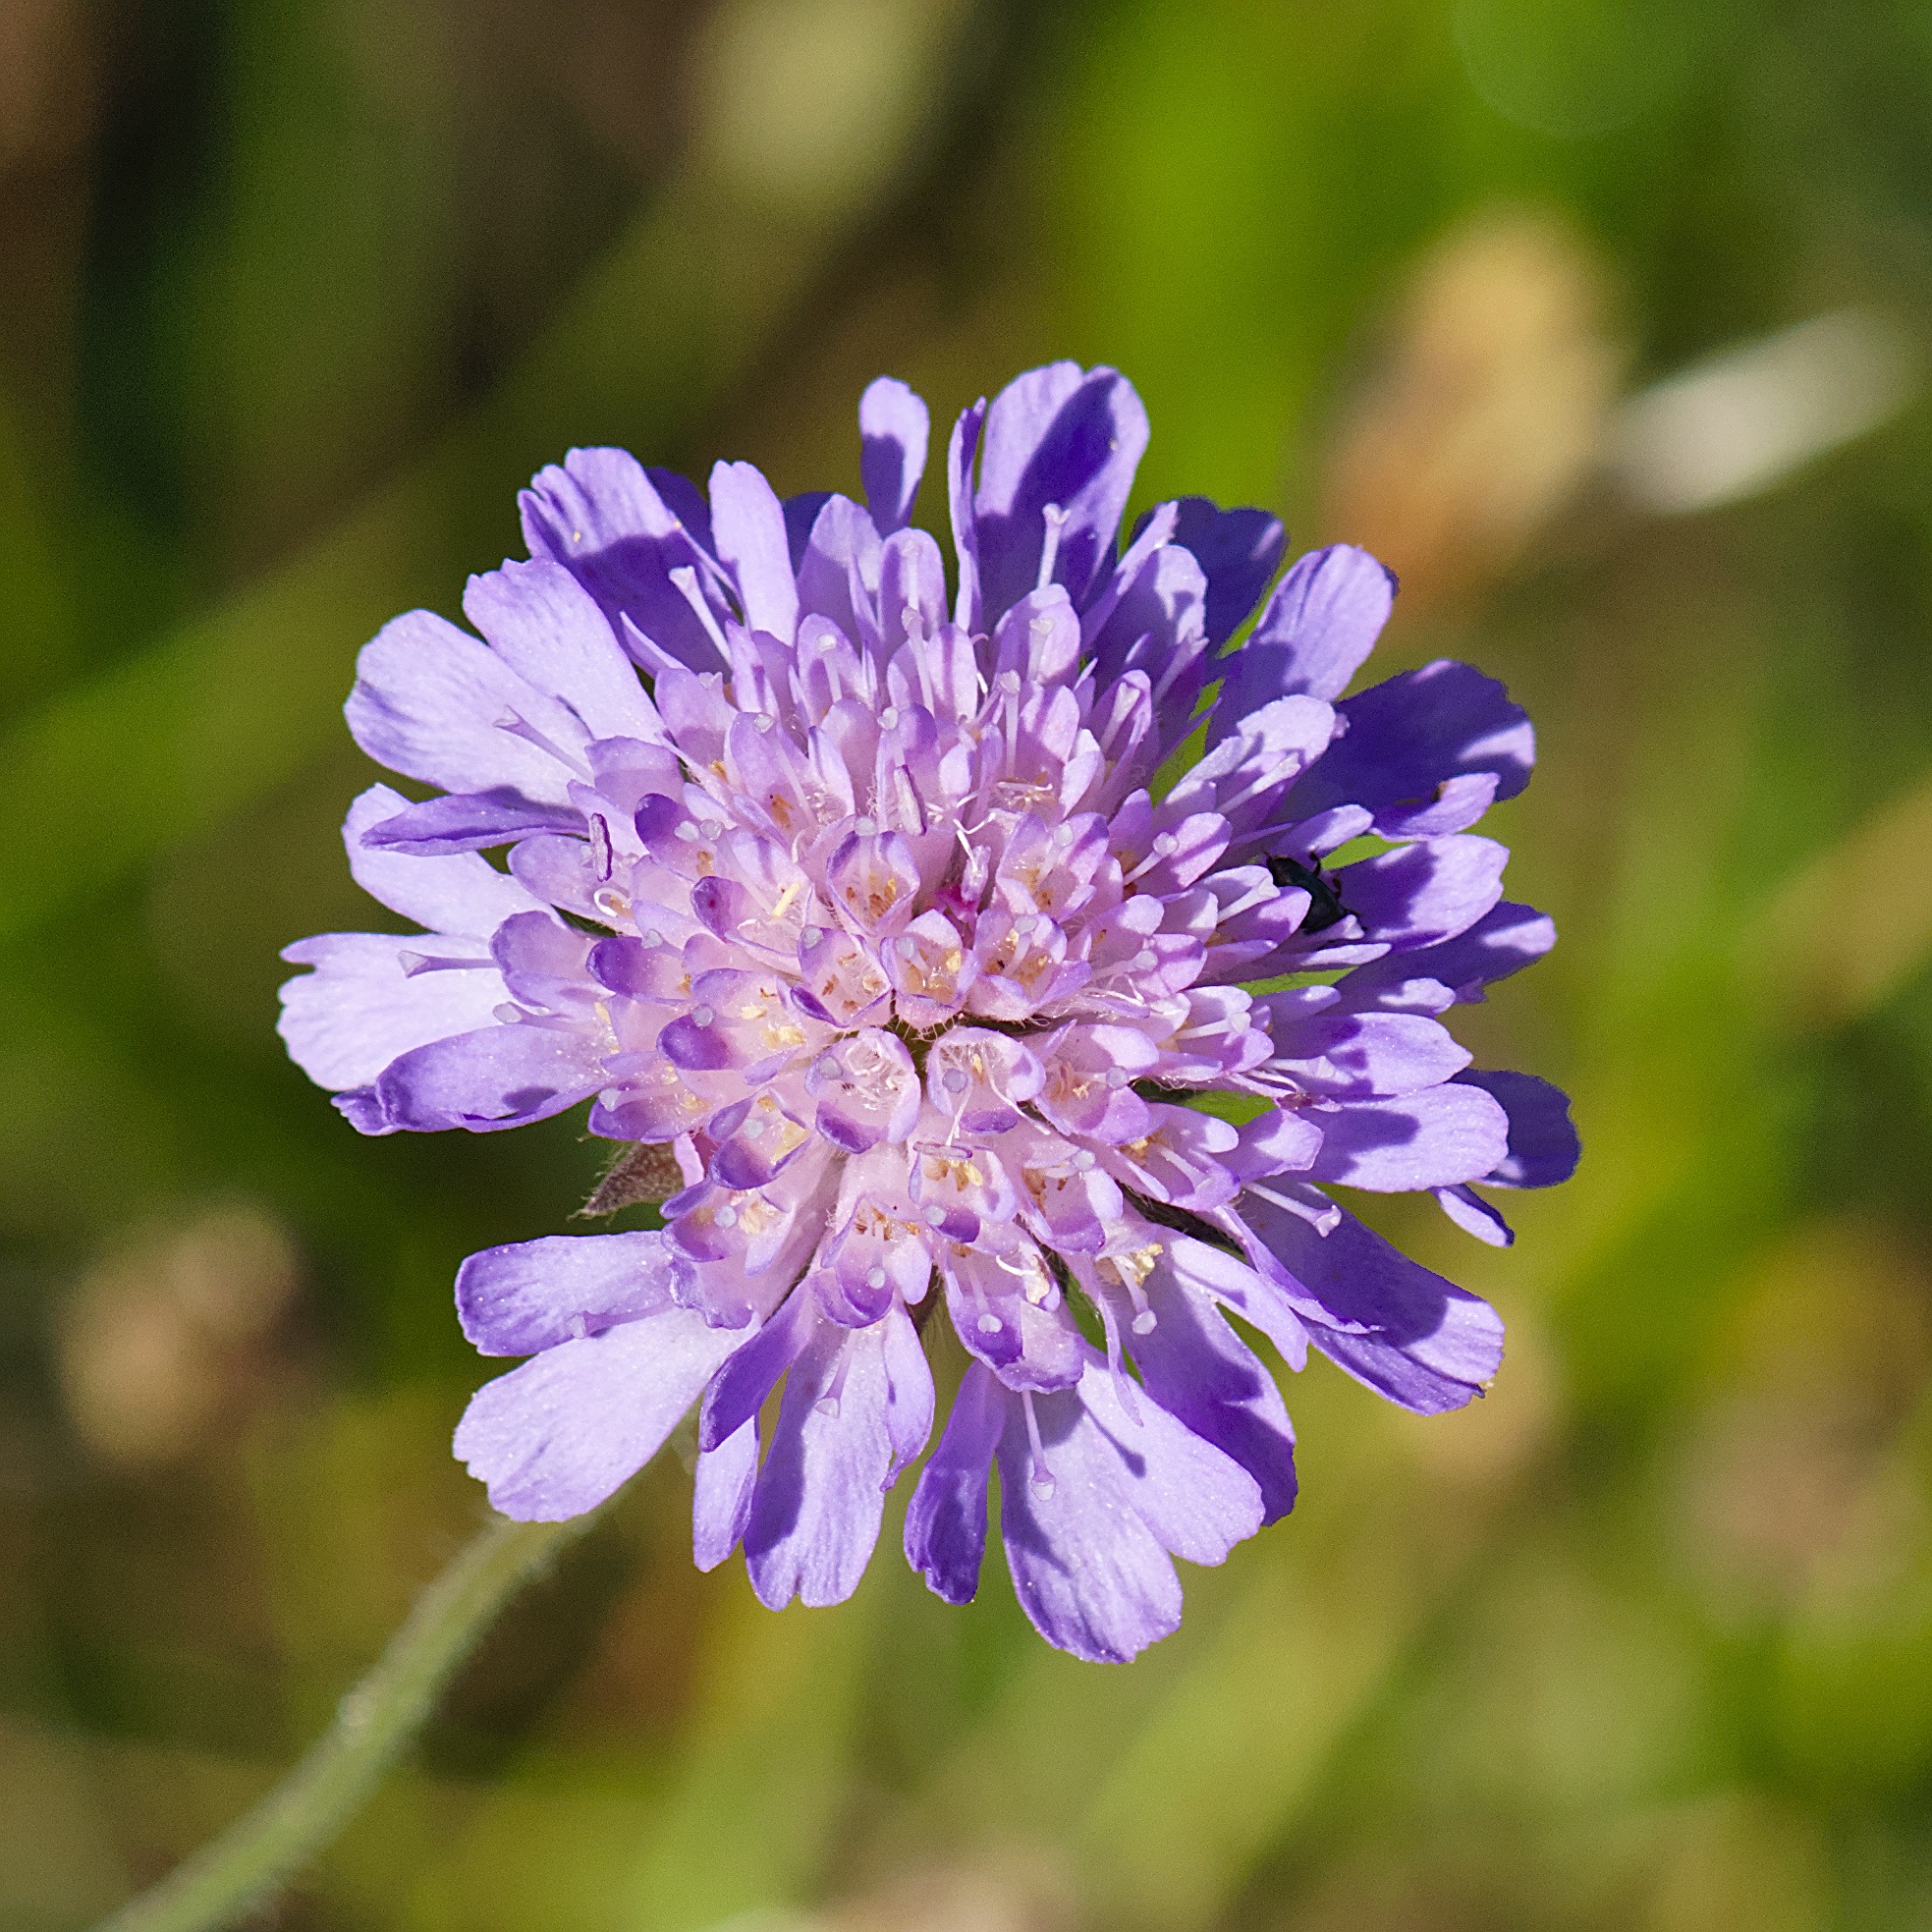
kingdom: Plantae
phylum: Tracheophyta
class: Magnoliopsida
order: Dipsacales
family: Caprifoliaceae
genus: Knautia
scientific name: Knautia arvensis
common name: Blåhat
